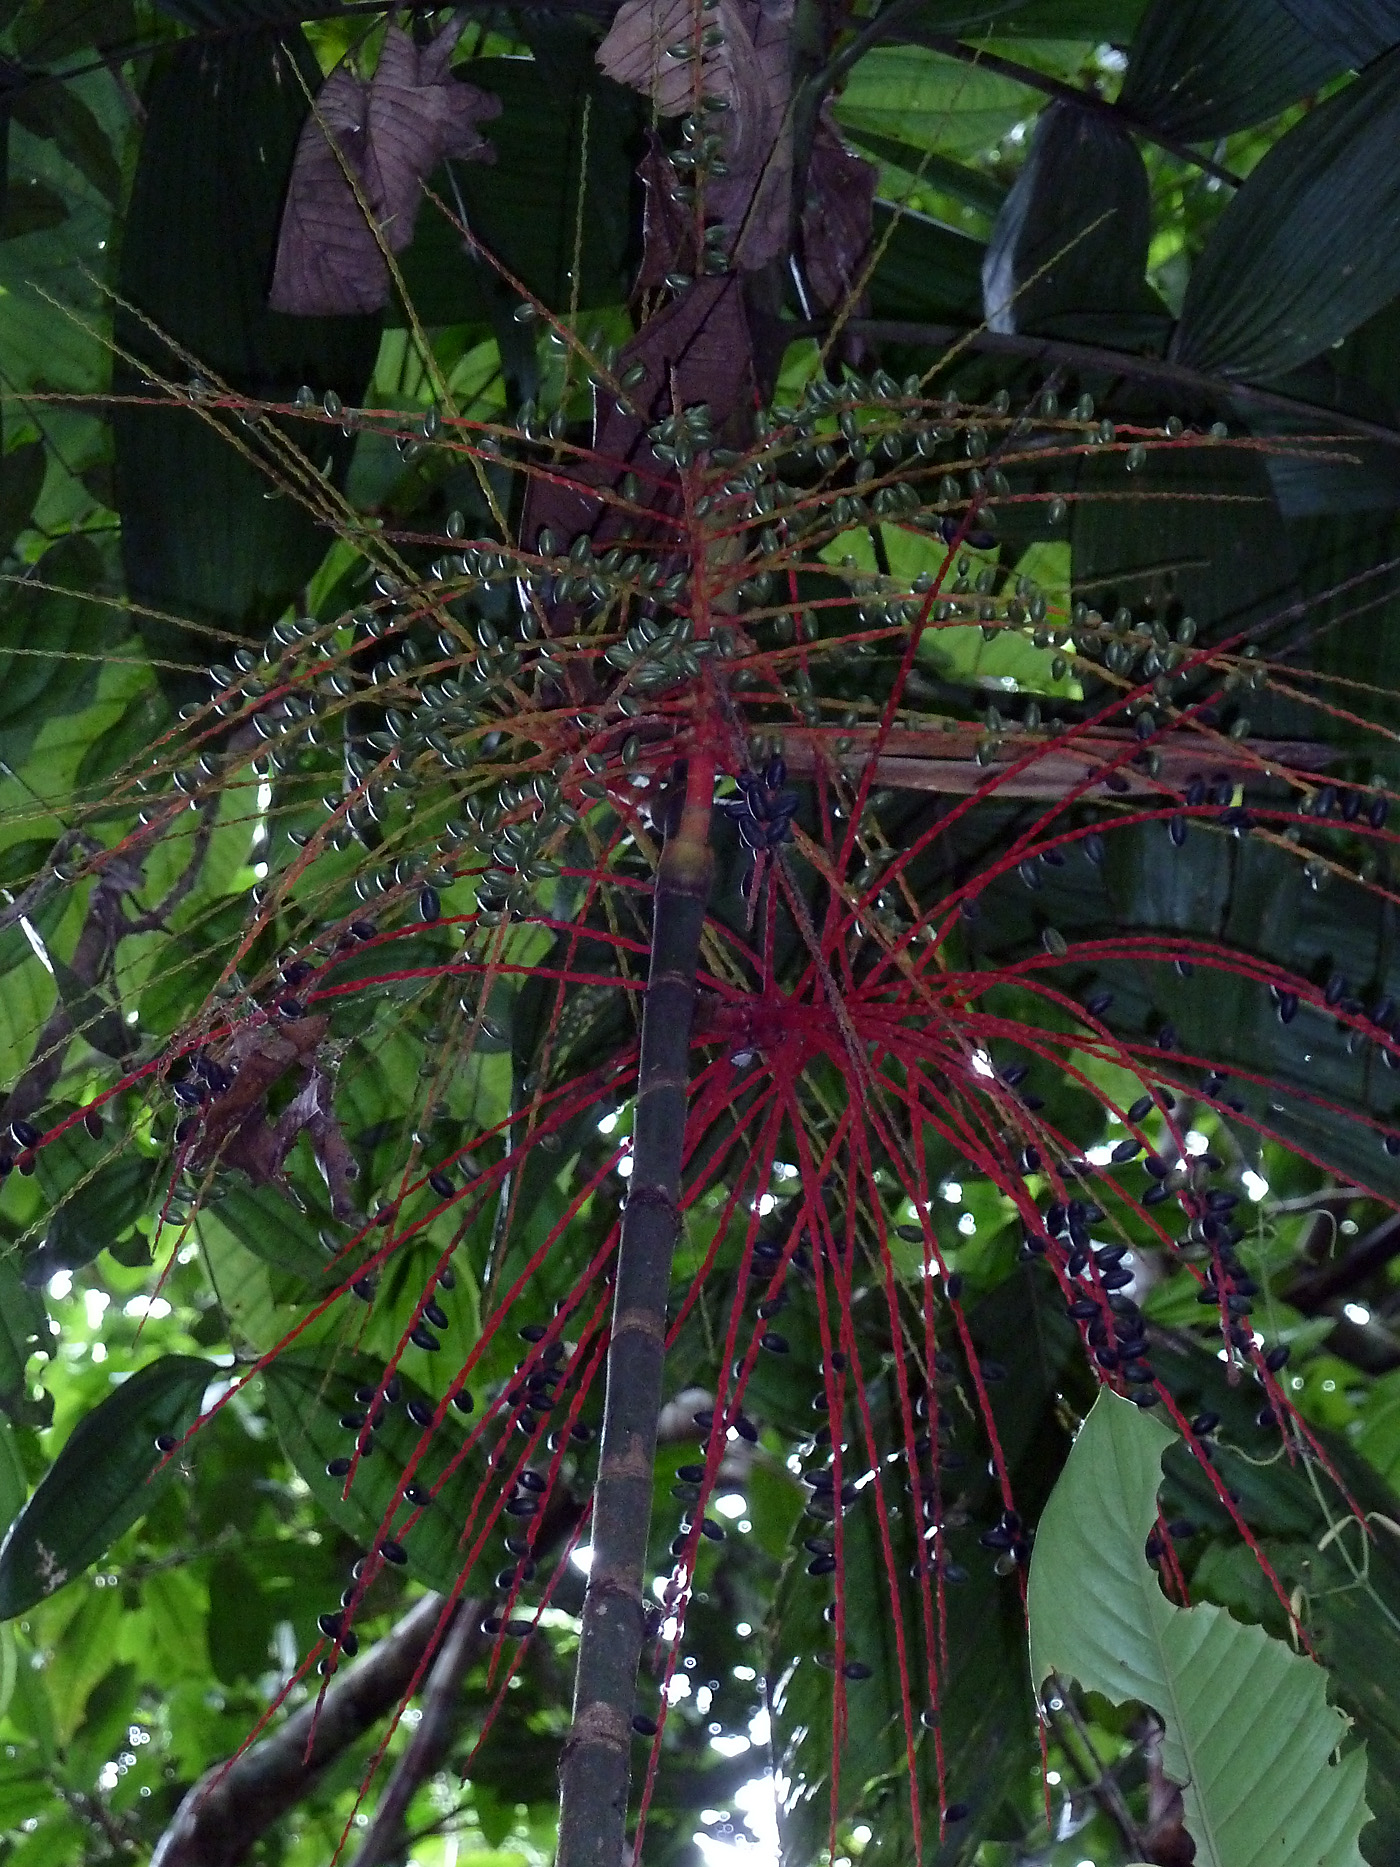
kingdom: Plantae
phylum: Tracheophyta
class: Liliopsida
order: Arecales
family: Arecaceae
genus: Hyospathe
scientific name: Hyospathe elegans
